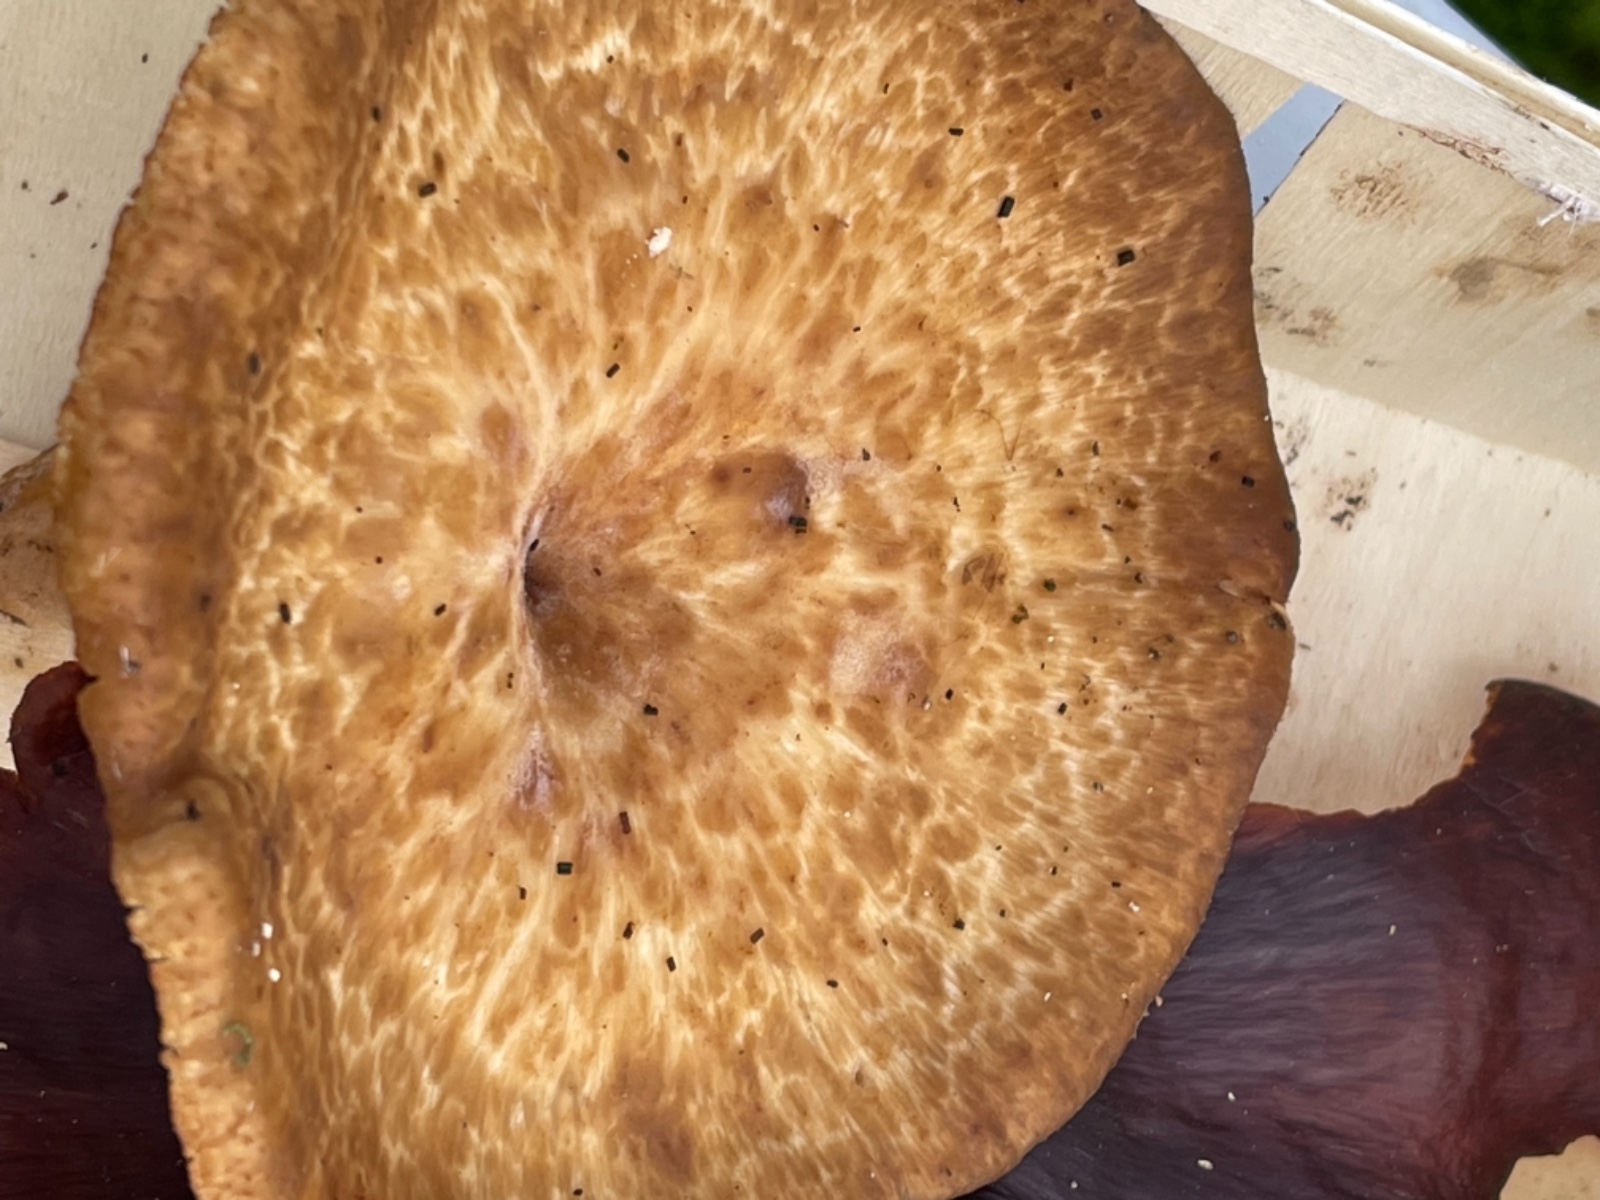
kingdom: Fungi
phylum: Basidiomycota
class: Agaricomycetes
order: Polyporales
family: Polyporaceae
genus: Polyporus
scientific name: Polyporus tuberaster
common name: knoldet stilkporesvamp
